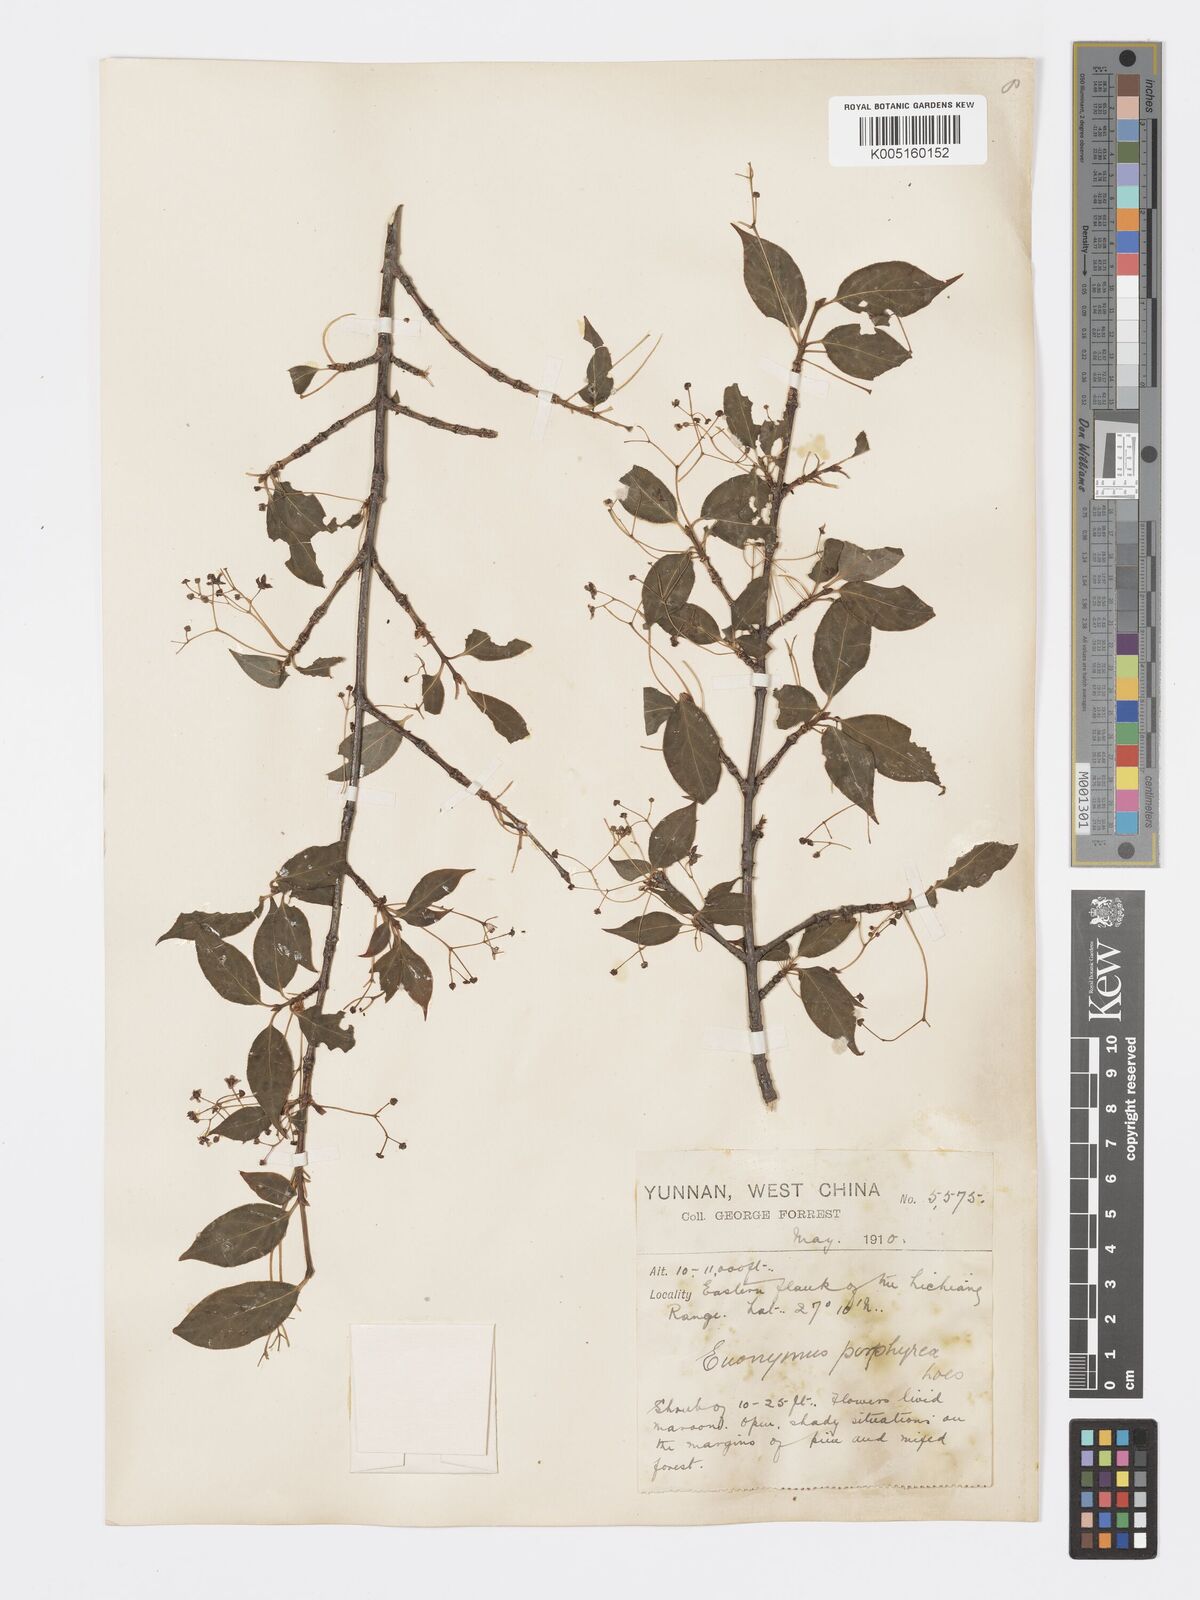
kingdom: Plantae
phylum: Tracheophyta
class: Magnoliopsida
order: Celastrales
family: Celastraceae
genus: Euonymus
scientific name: Euonymus frigidus
